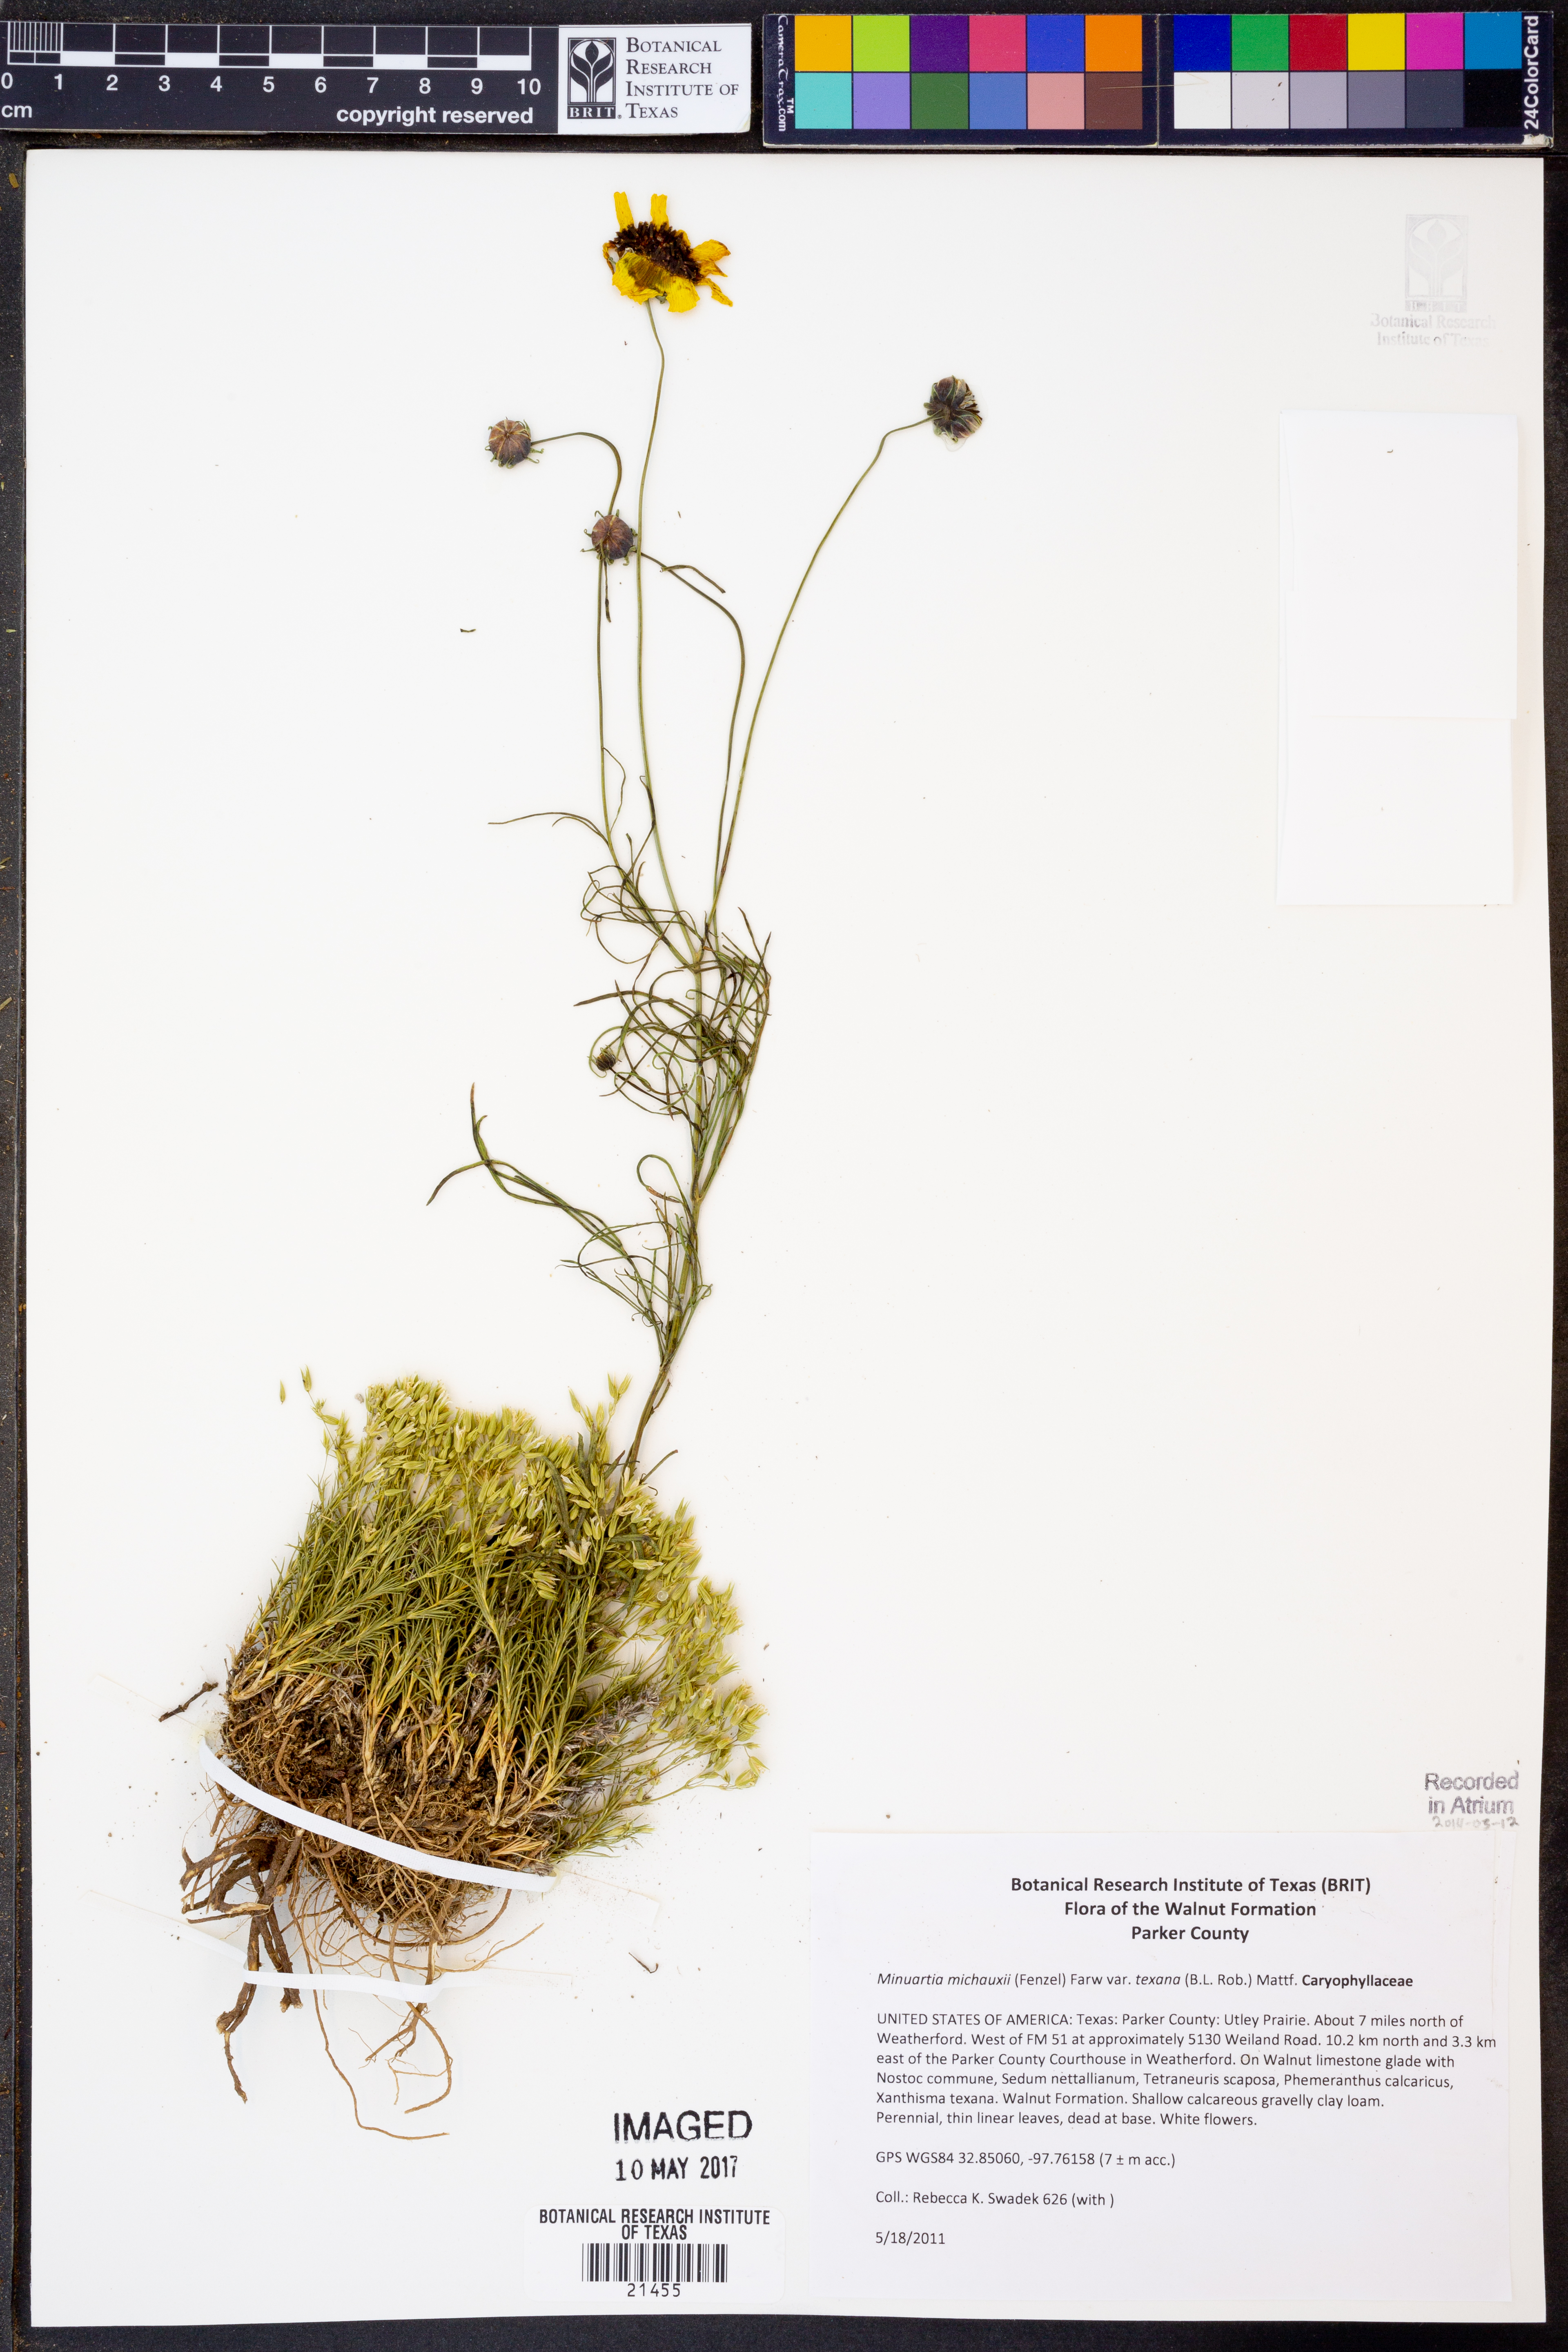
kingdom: Plantae
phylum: Tracheophyta
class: Magnoliopsida
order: Caryophyllales
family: Caryophyllaceae
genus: Sabulina
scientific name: Sabulina texana
